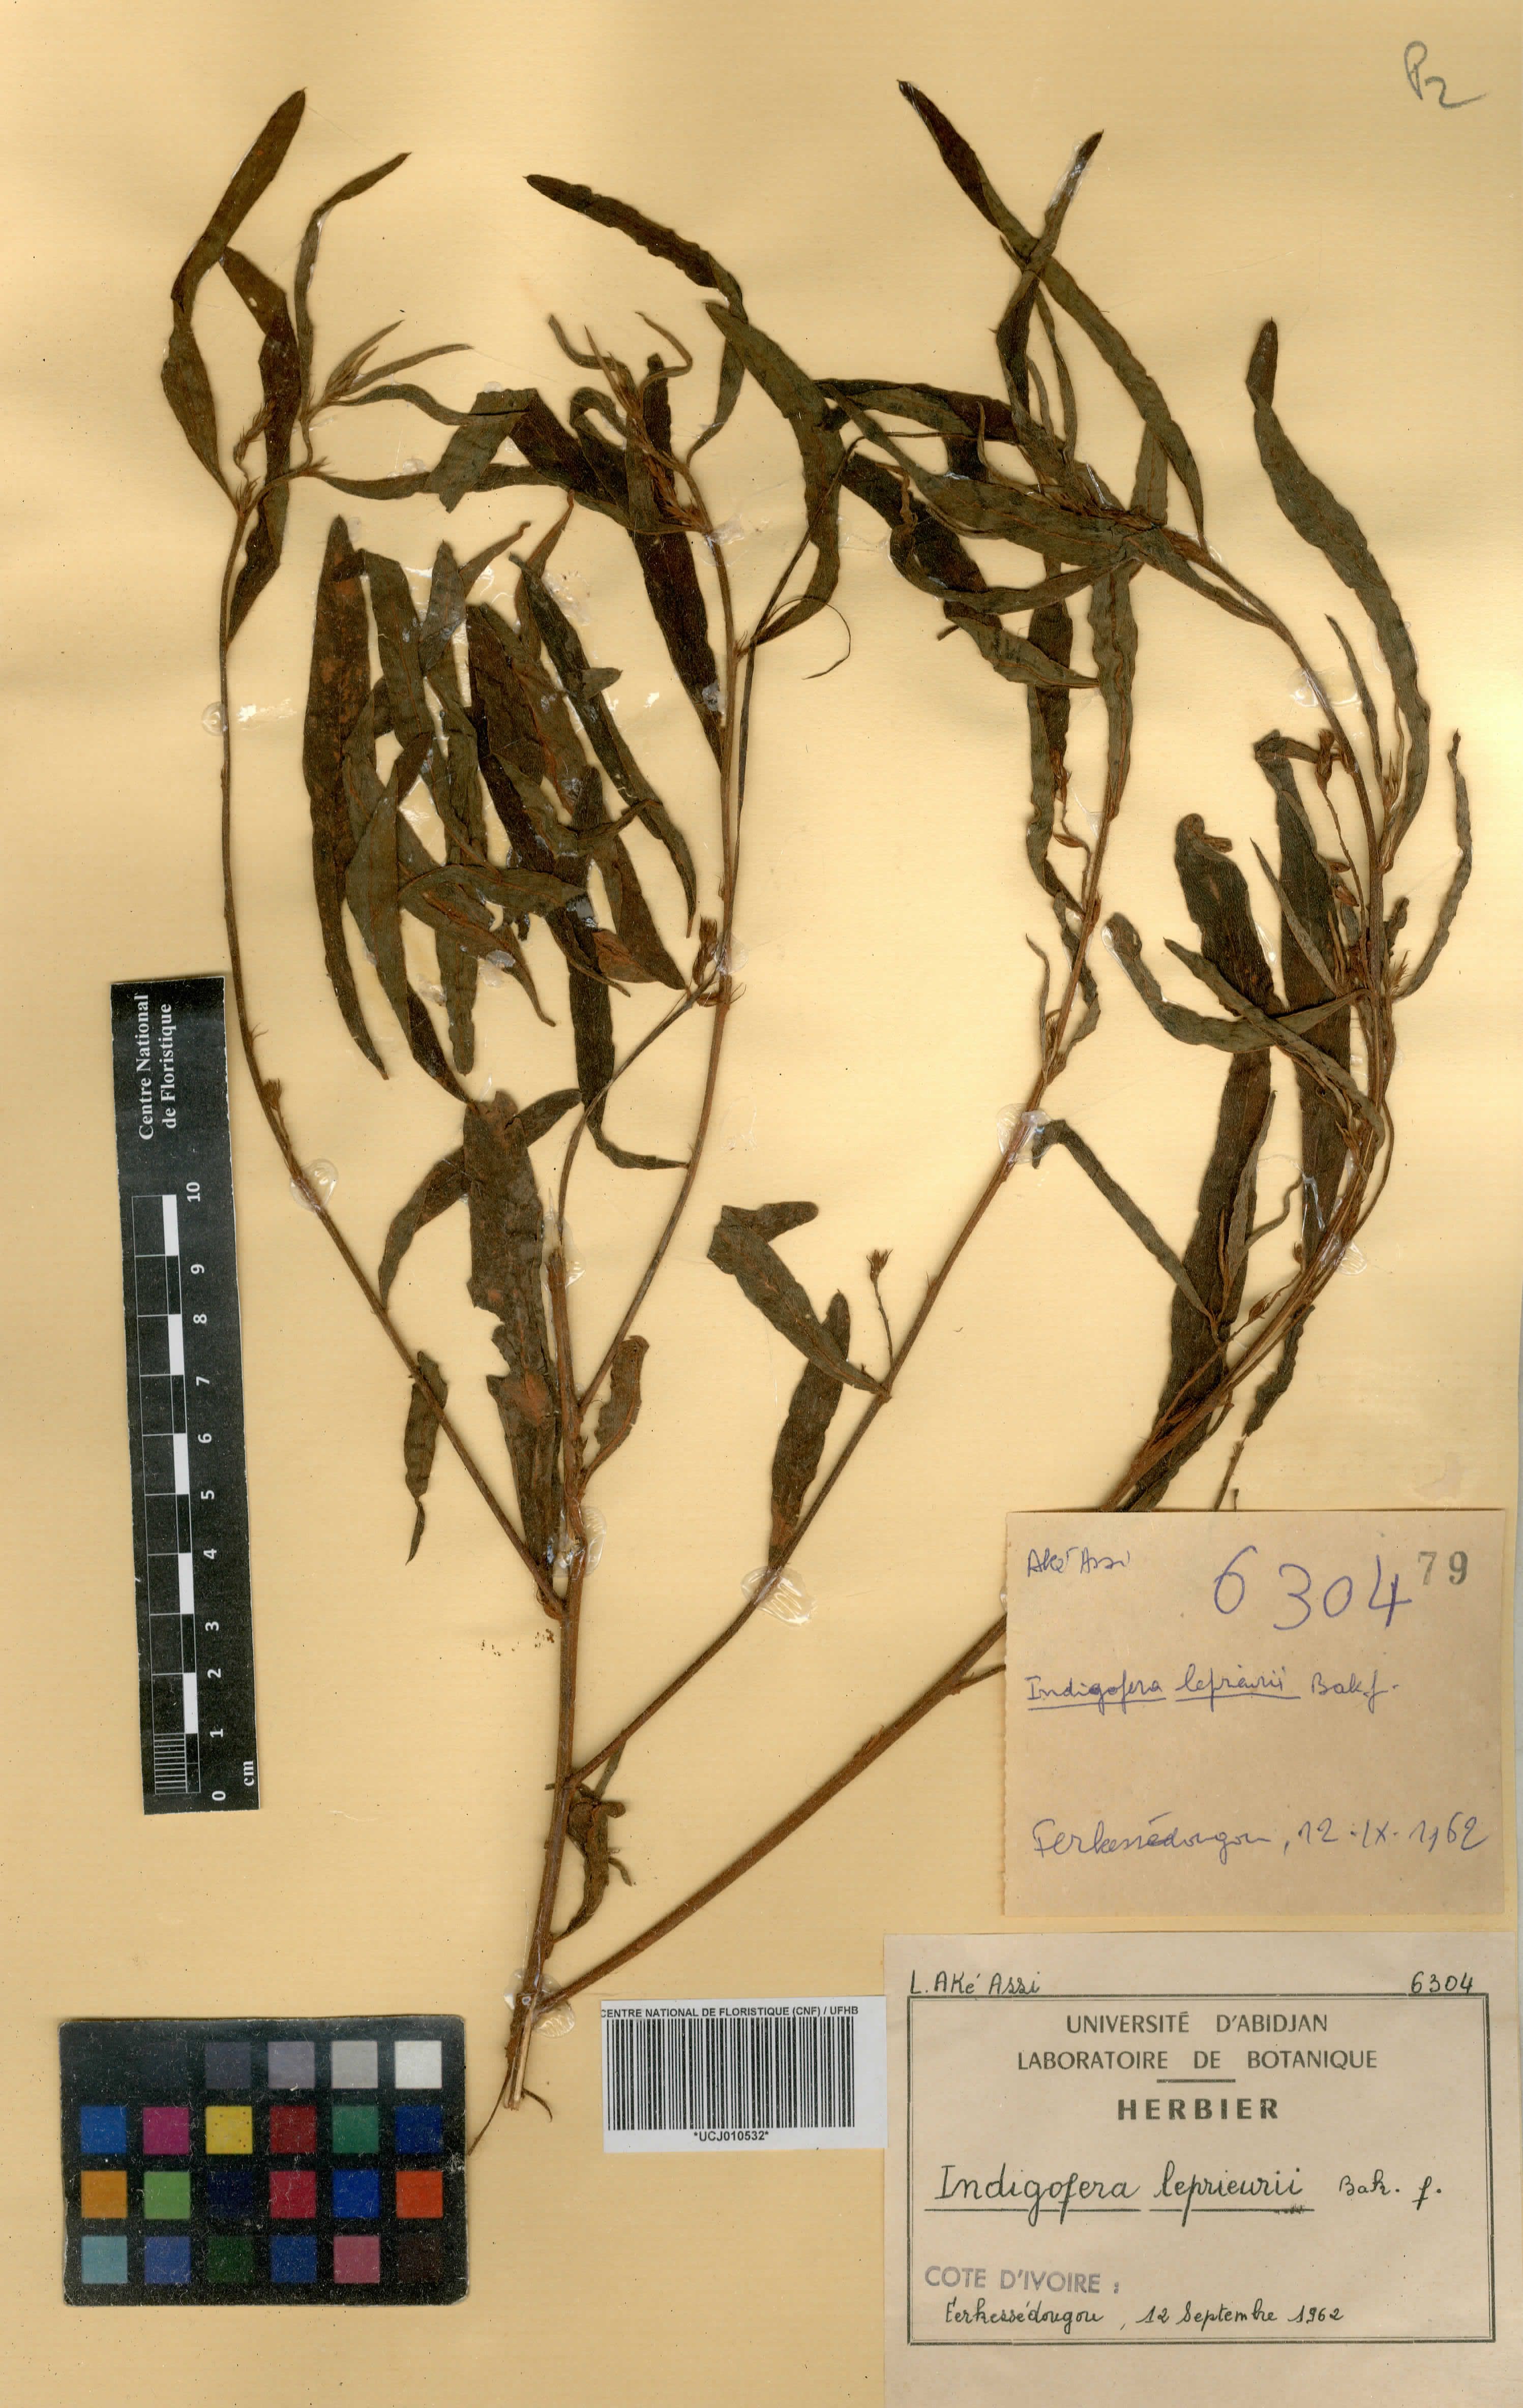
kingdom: Plantae
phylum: Tracheophyta
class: Magnoliopsida
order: Fabales
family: Fabaceae
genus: Indigofera
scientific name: Indigofera leprieurii
